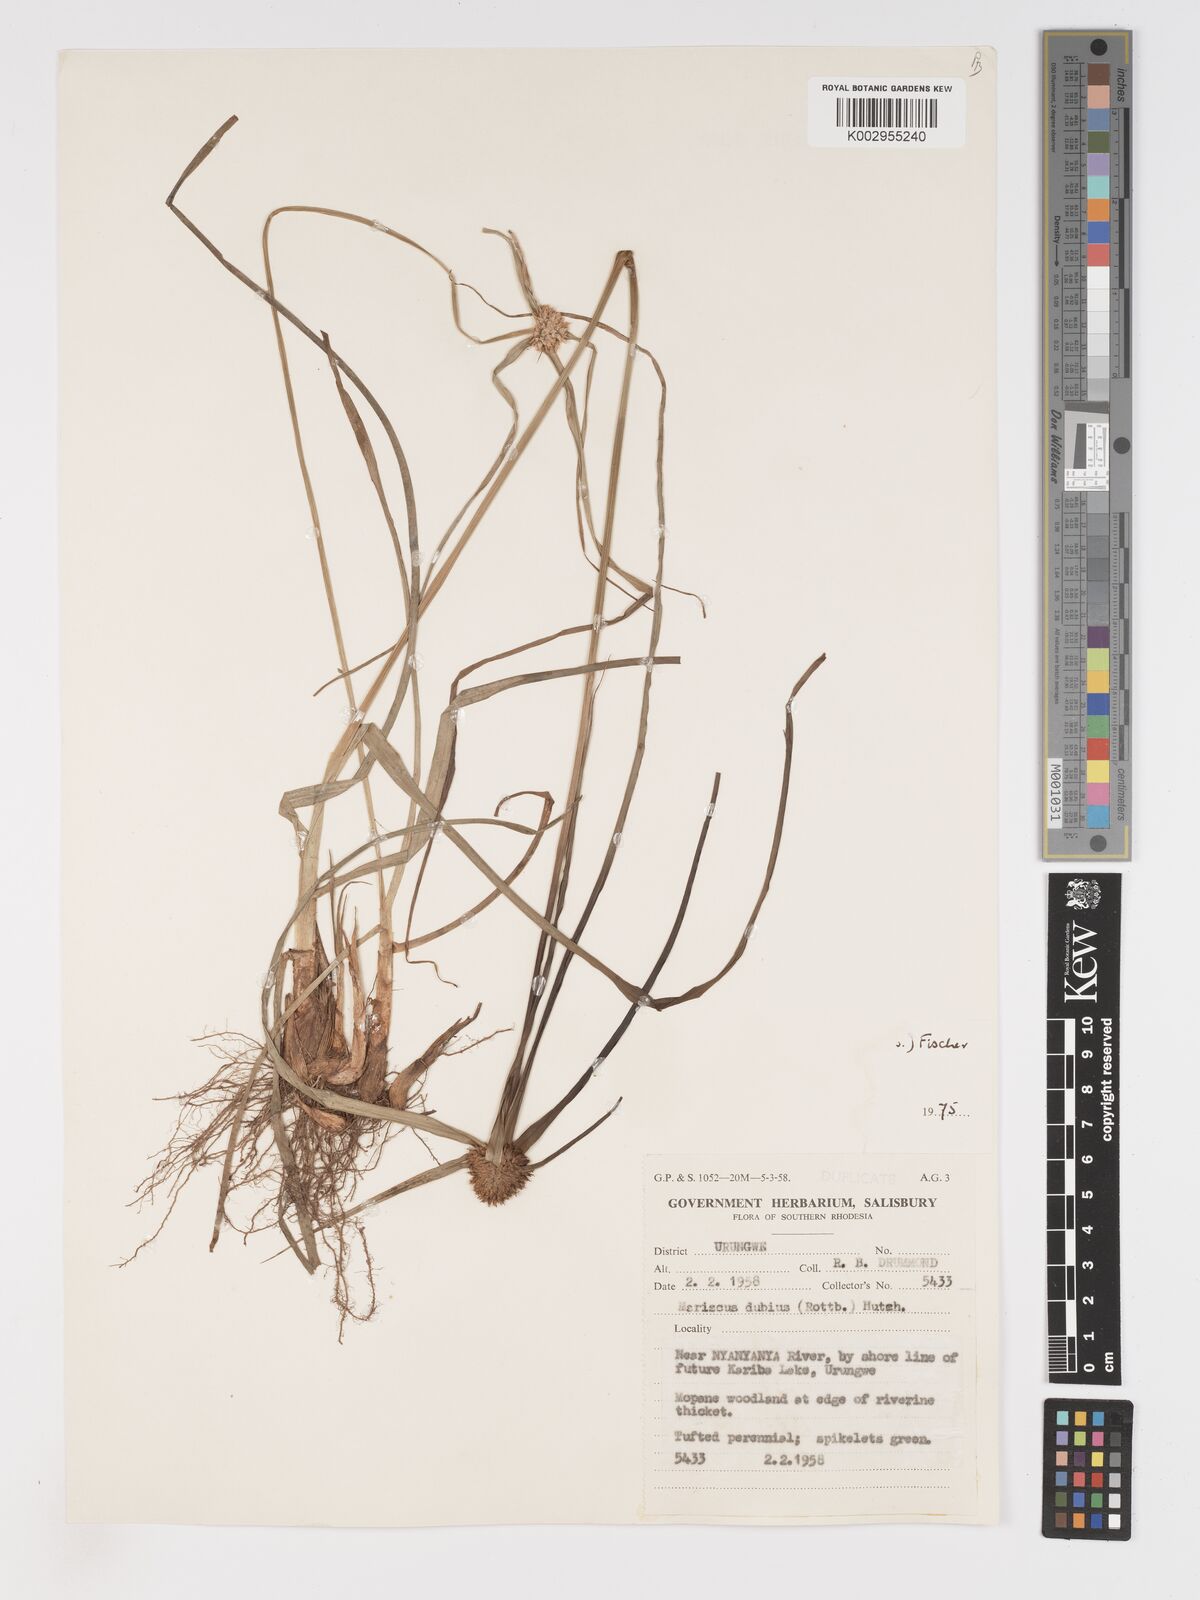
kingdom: Plantae
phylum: Tracheophyta
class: Liliopsida
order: Poales
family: Cyperaceae
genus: Cyperus
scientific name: Cyperus chersinus
